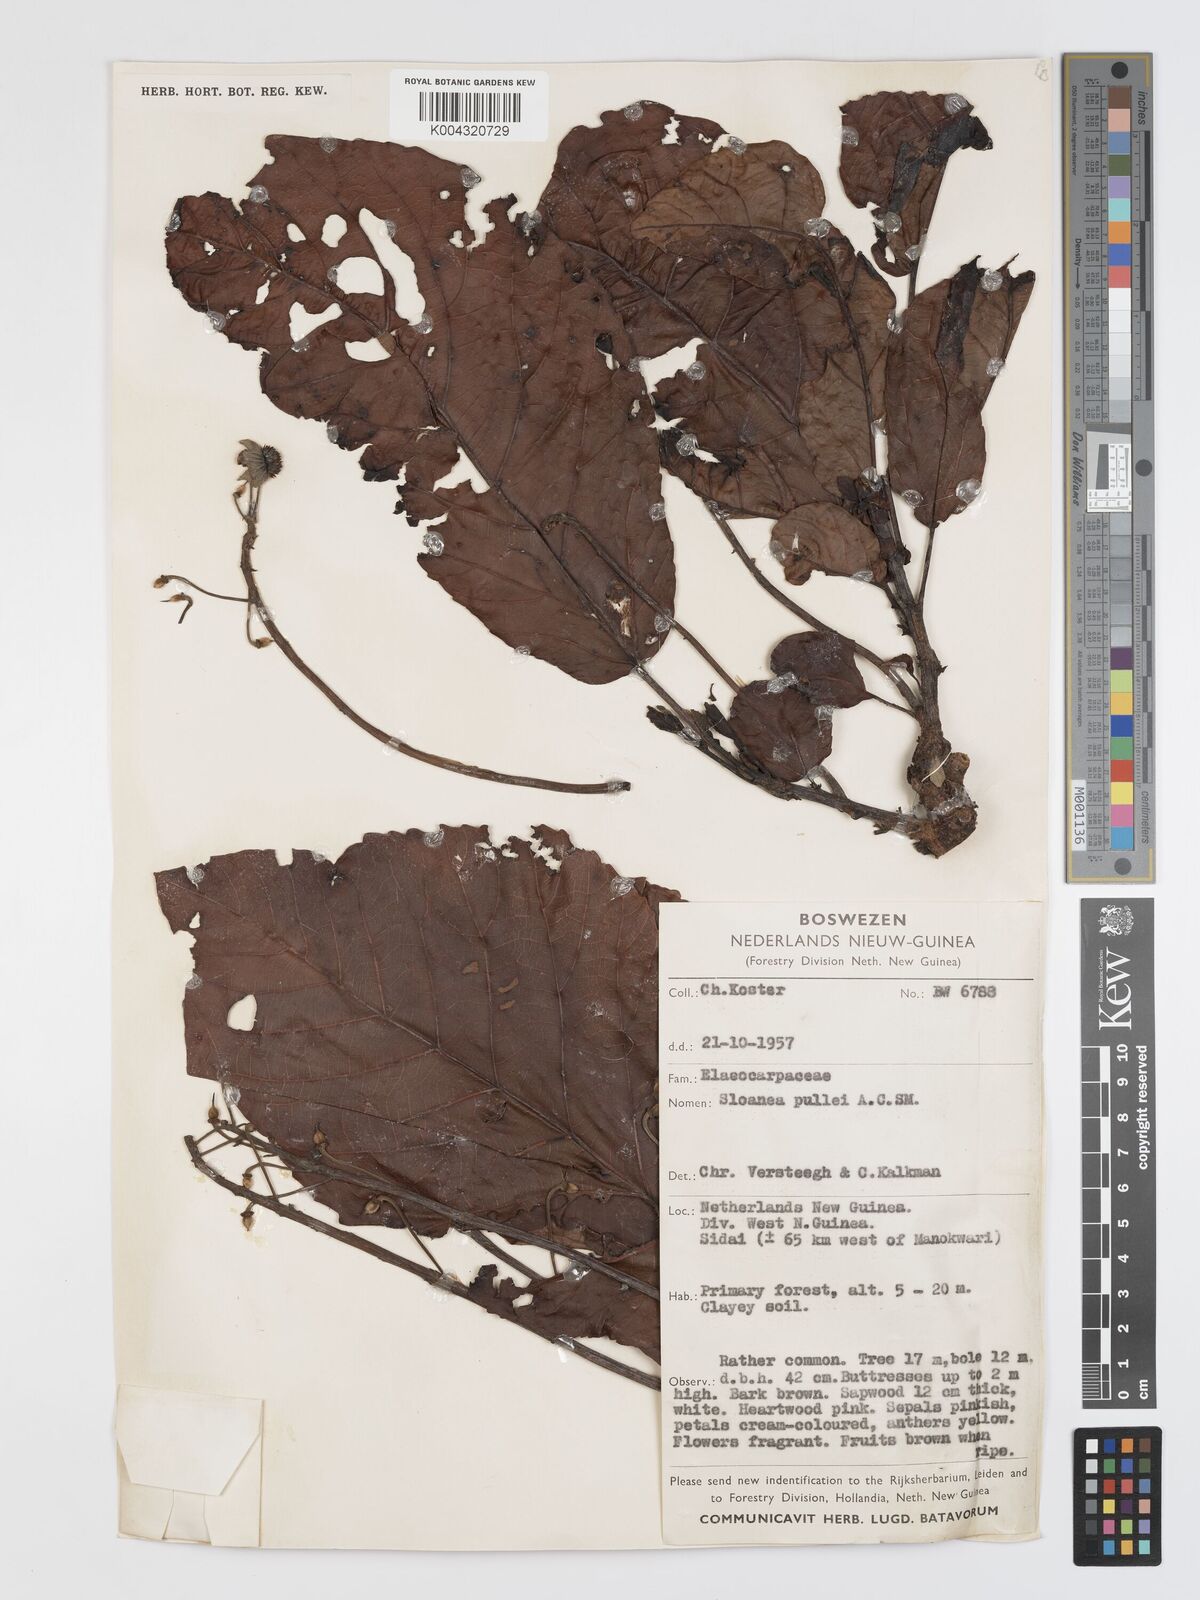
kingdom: Plantae
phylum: Tracheophyta
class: Magnoliopsida
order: Oxalidales
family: Elaeocarpaceae
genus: Sloanea
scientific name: Sloanea pullei
